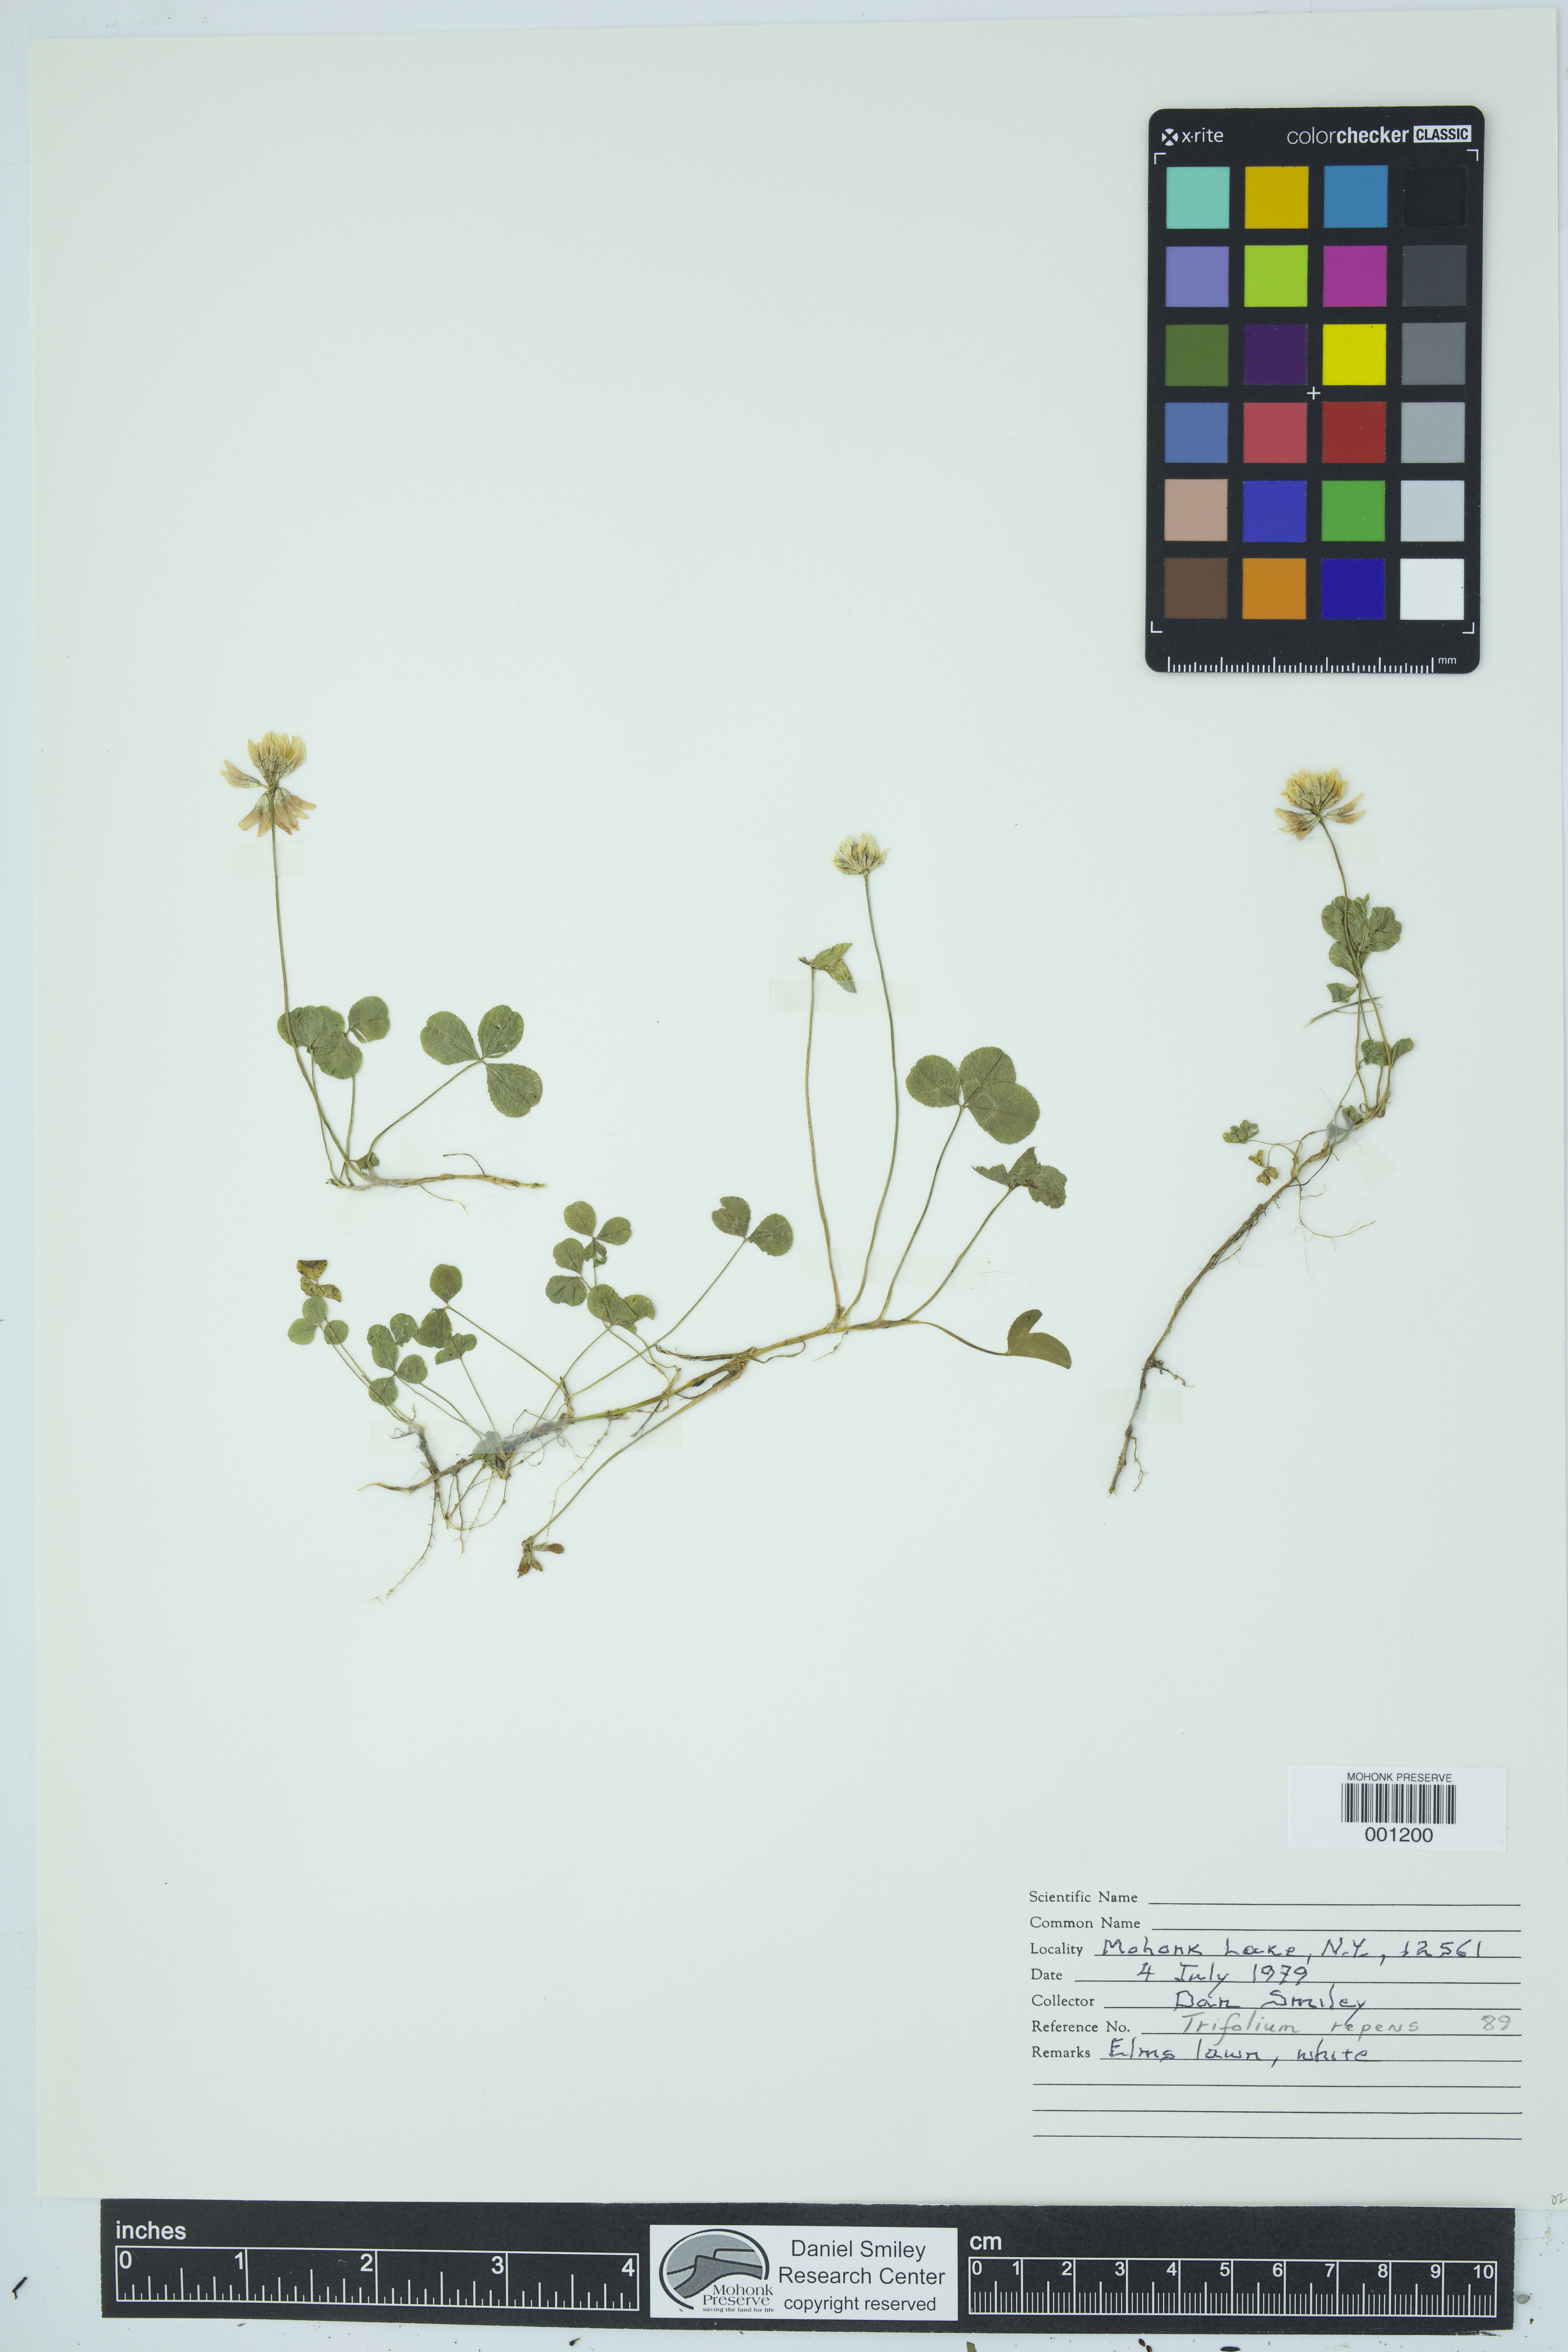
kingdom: Plantae
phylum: Tracheophyta
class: Magnoliopsida
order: Fabales
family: Fabaceae
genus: Trifolium
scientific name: Trifolium repens
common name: White clover
